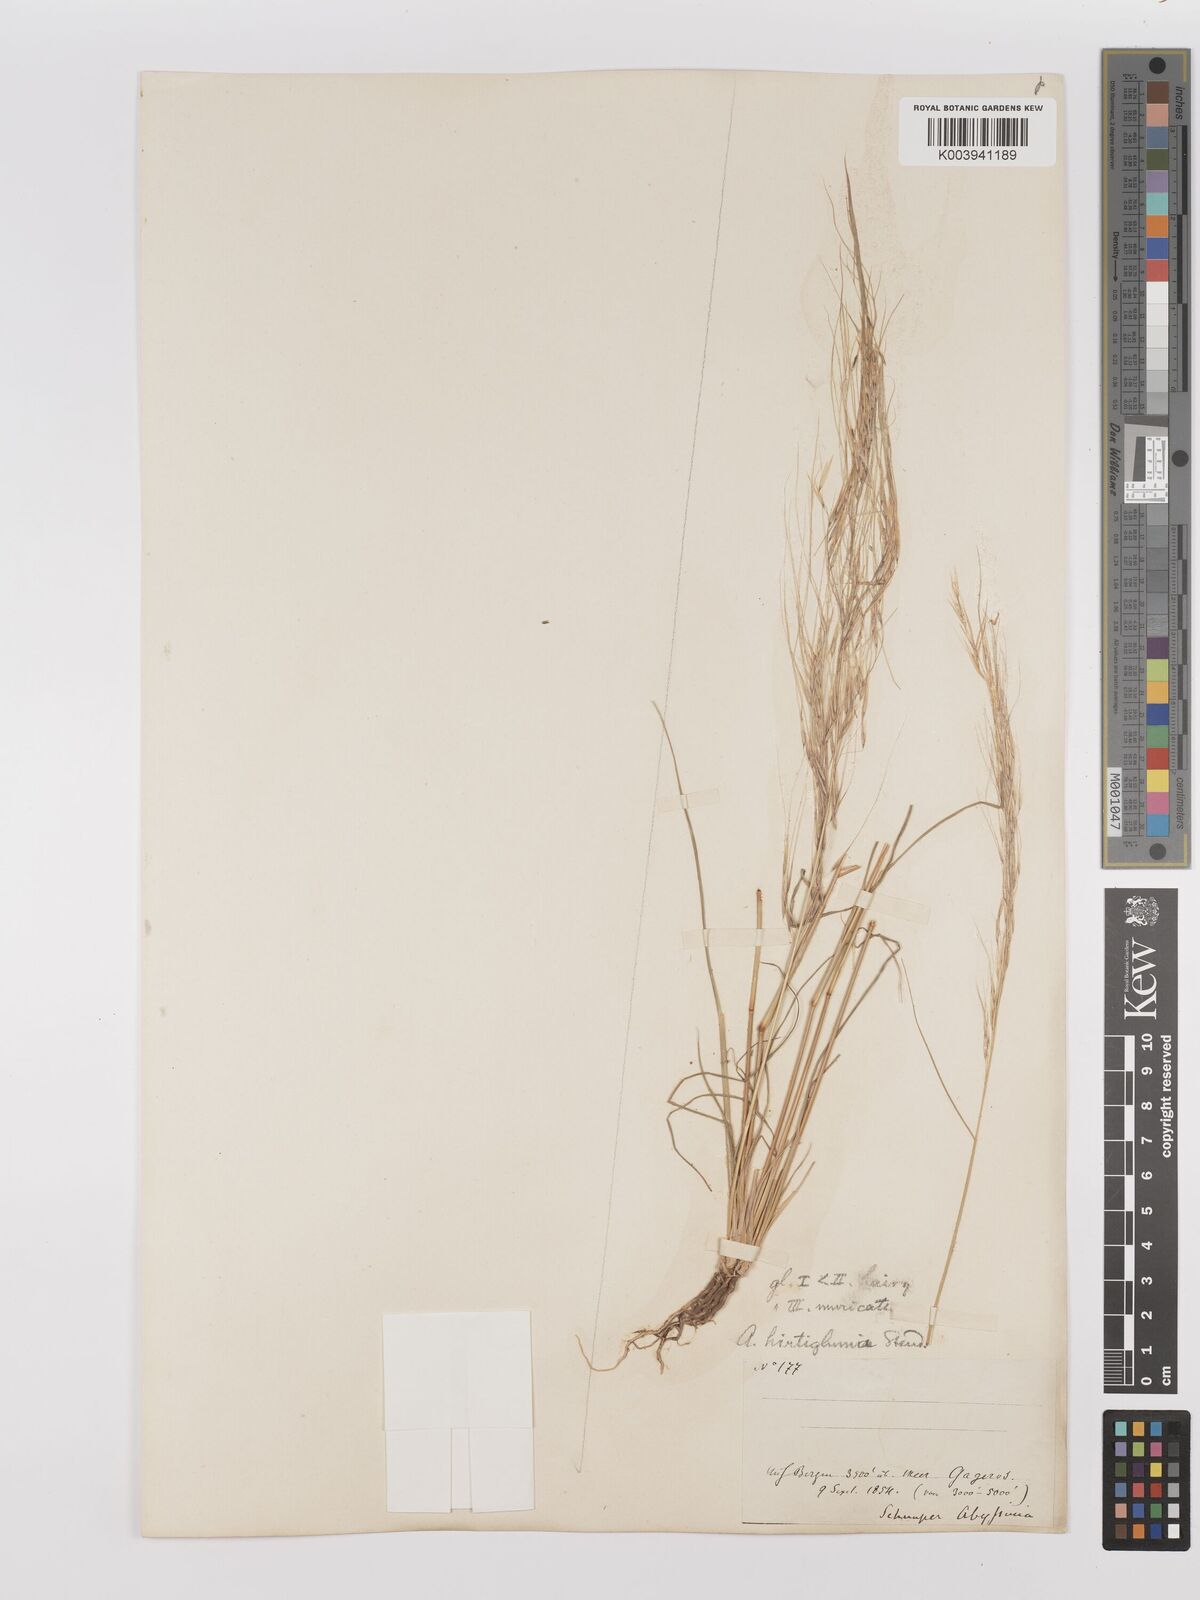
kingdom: Plantae
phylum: Tracheophyta
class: Liliopsida
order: Poales
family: Poaceae
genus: Stipagrostis
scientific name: Stipagrostis hirtigluma
